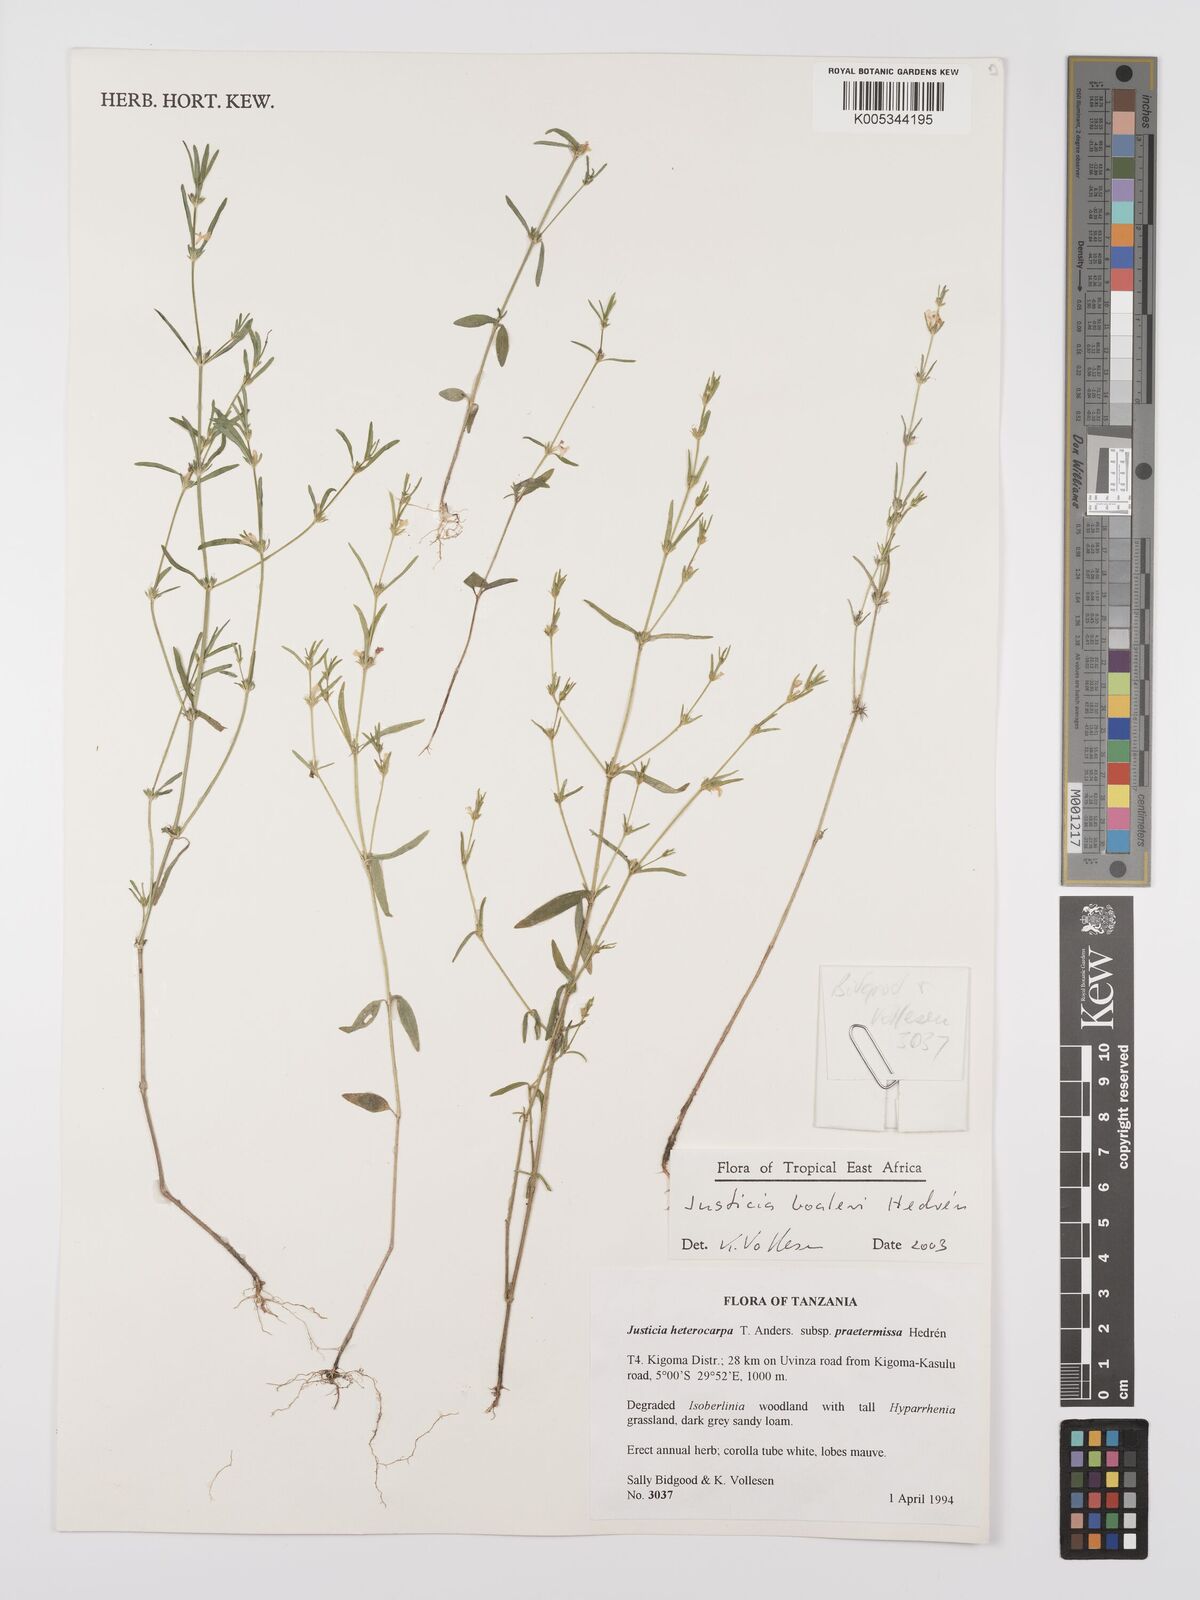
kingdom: Plantae
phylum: Tracheophyta
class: Magnoliopsida
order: Lamiales
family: Acanthaceae
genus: Justicia
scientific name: Justicia boaleri
